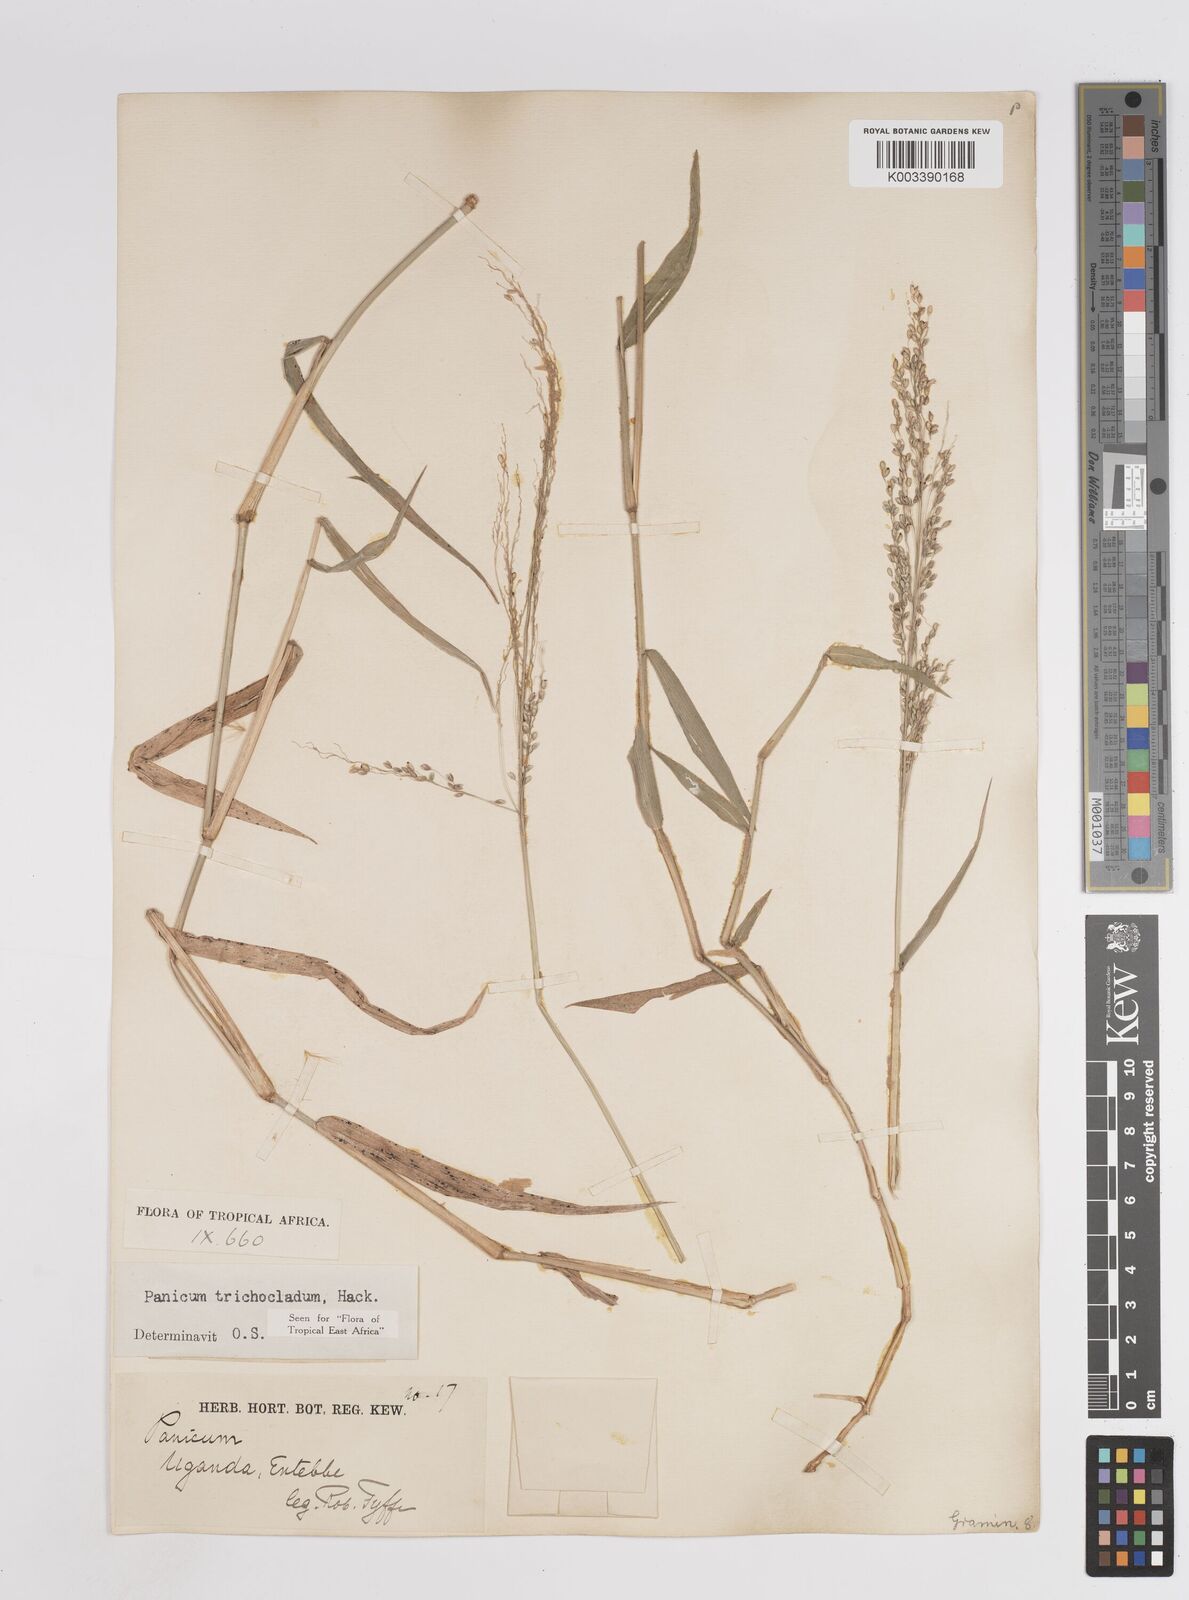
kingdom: Plantae
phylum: Tracheophyta
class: Liliopsida
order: Poales
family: Poaceae
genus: Panicum
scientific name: Panicum trichocladum
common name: Donkey grass
